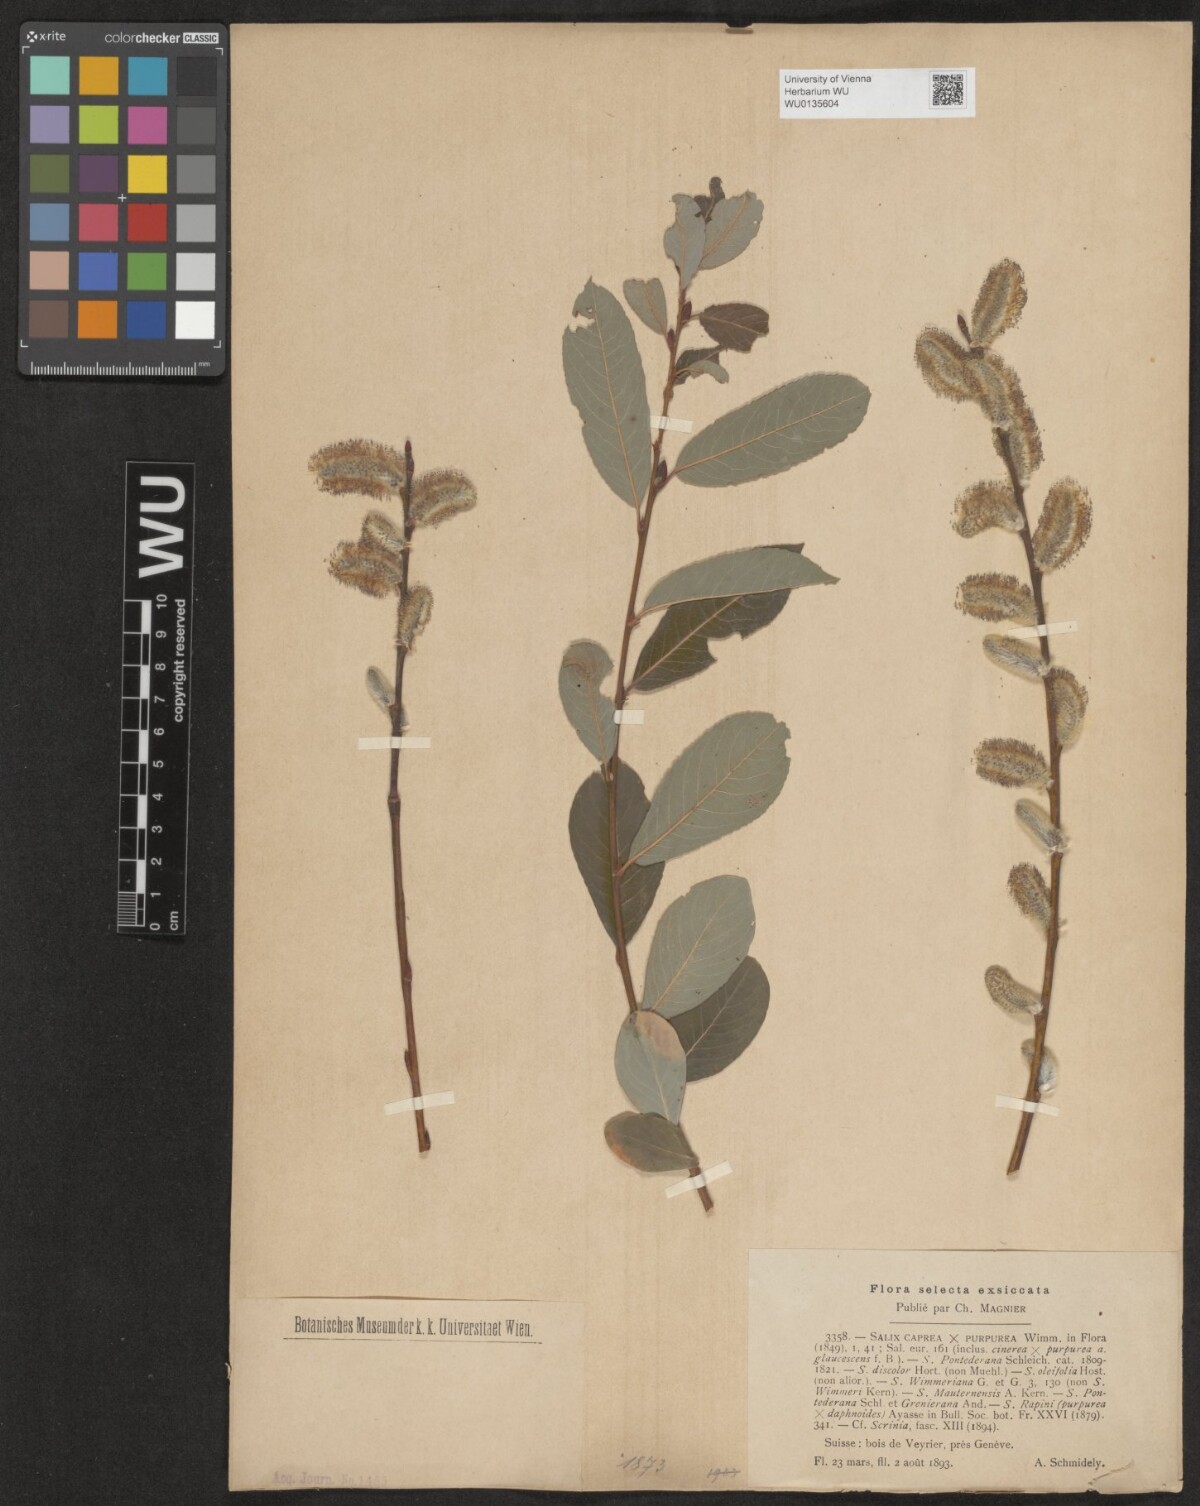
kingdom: Plantae
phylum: Tracheophyta
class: Magnoliopsida
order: Malpighiales
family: Salicaceae
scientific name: Salicaceae
